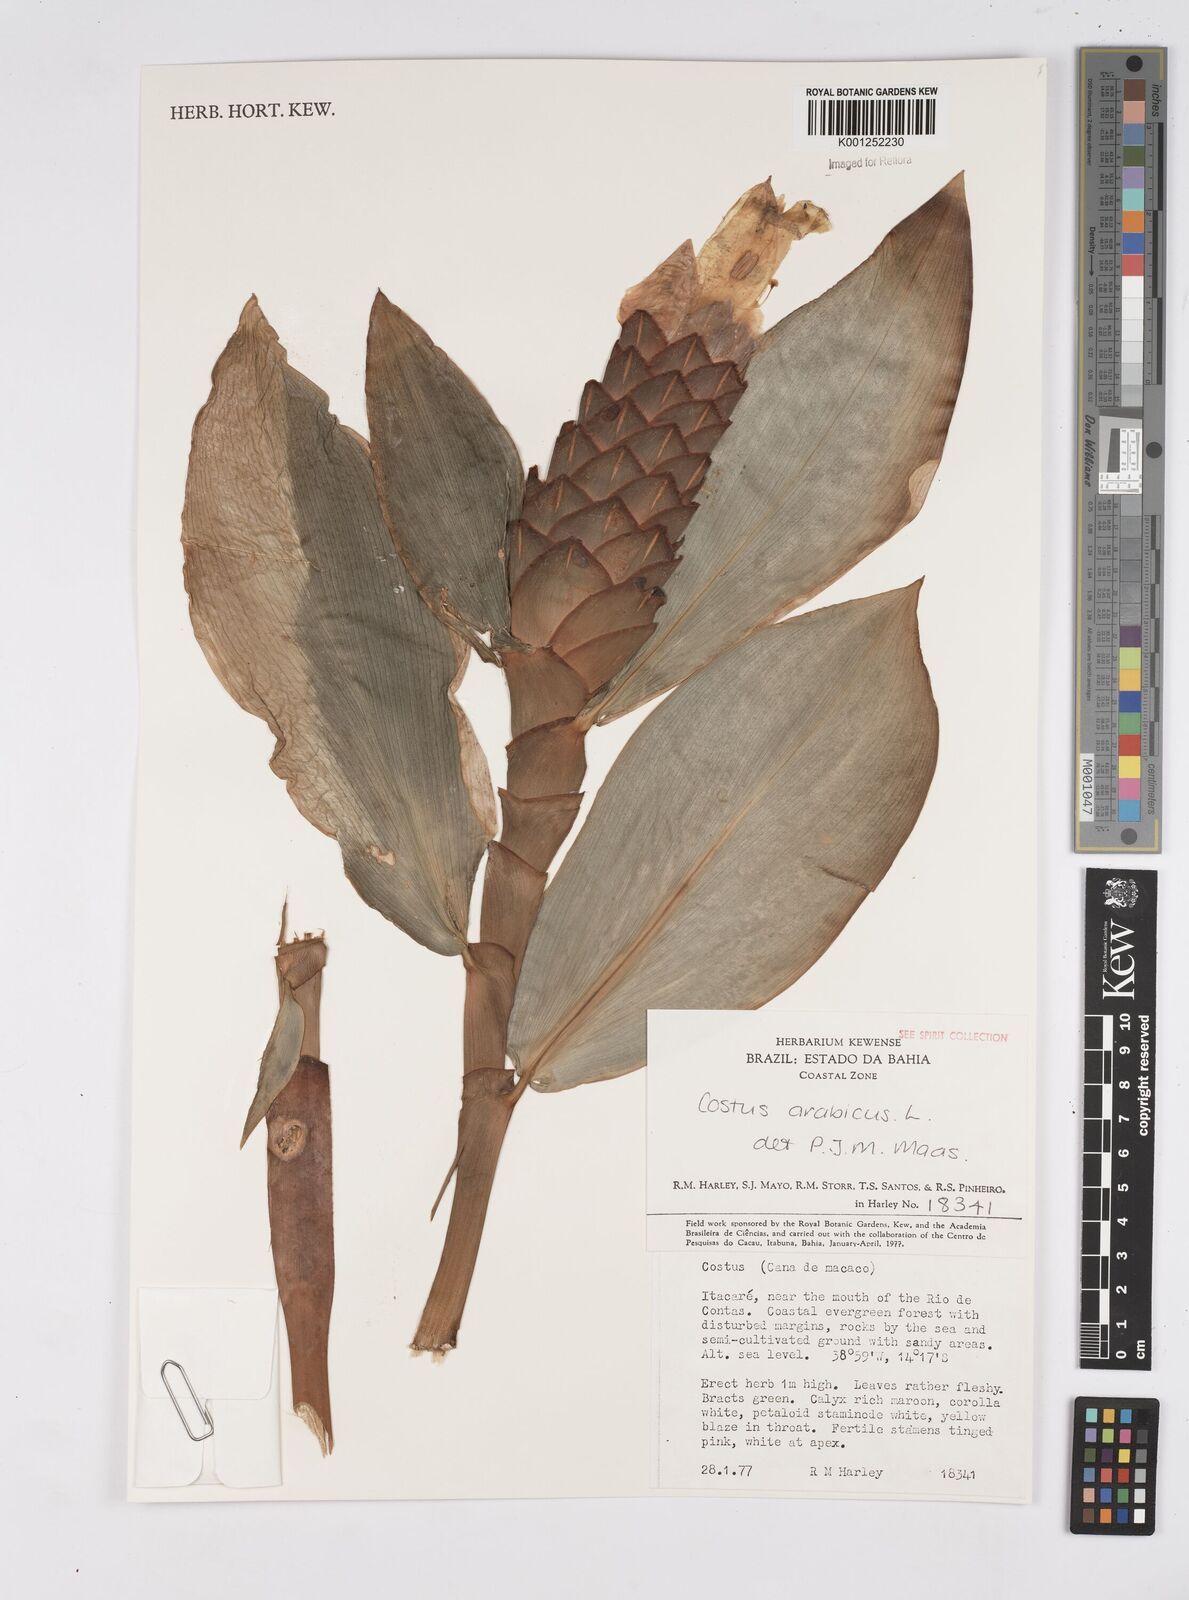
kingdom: Plantae
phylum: Tracheophyta
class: Liliopsida
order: Zingiberales
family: Costaceae
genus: Costus
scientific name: Costus arabicus
